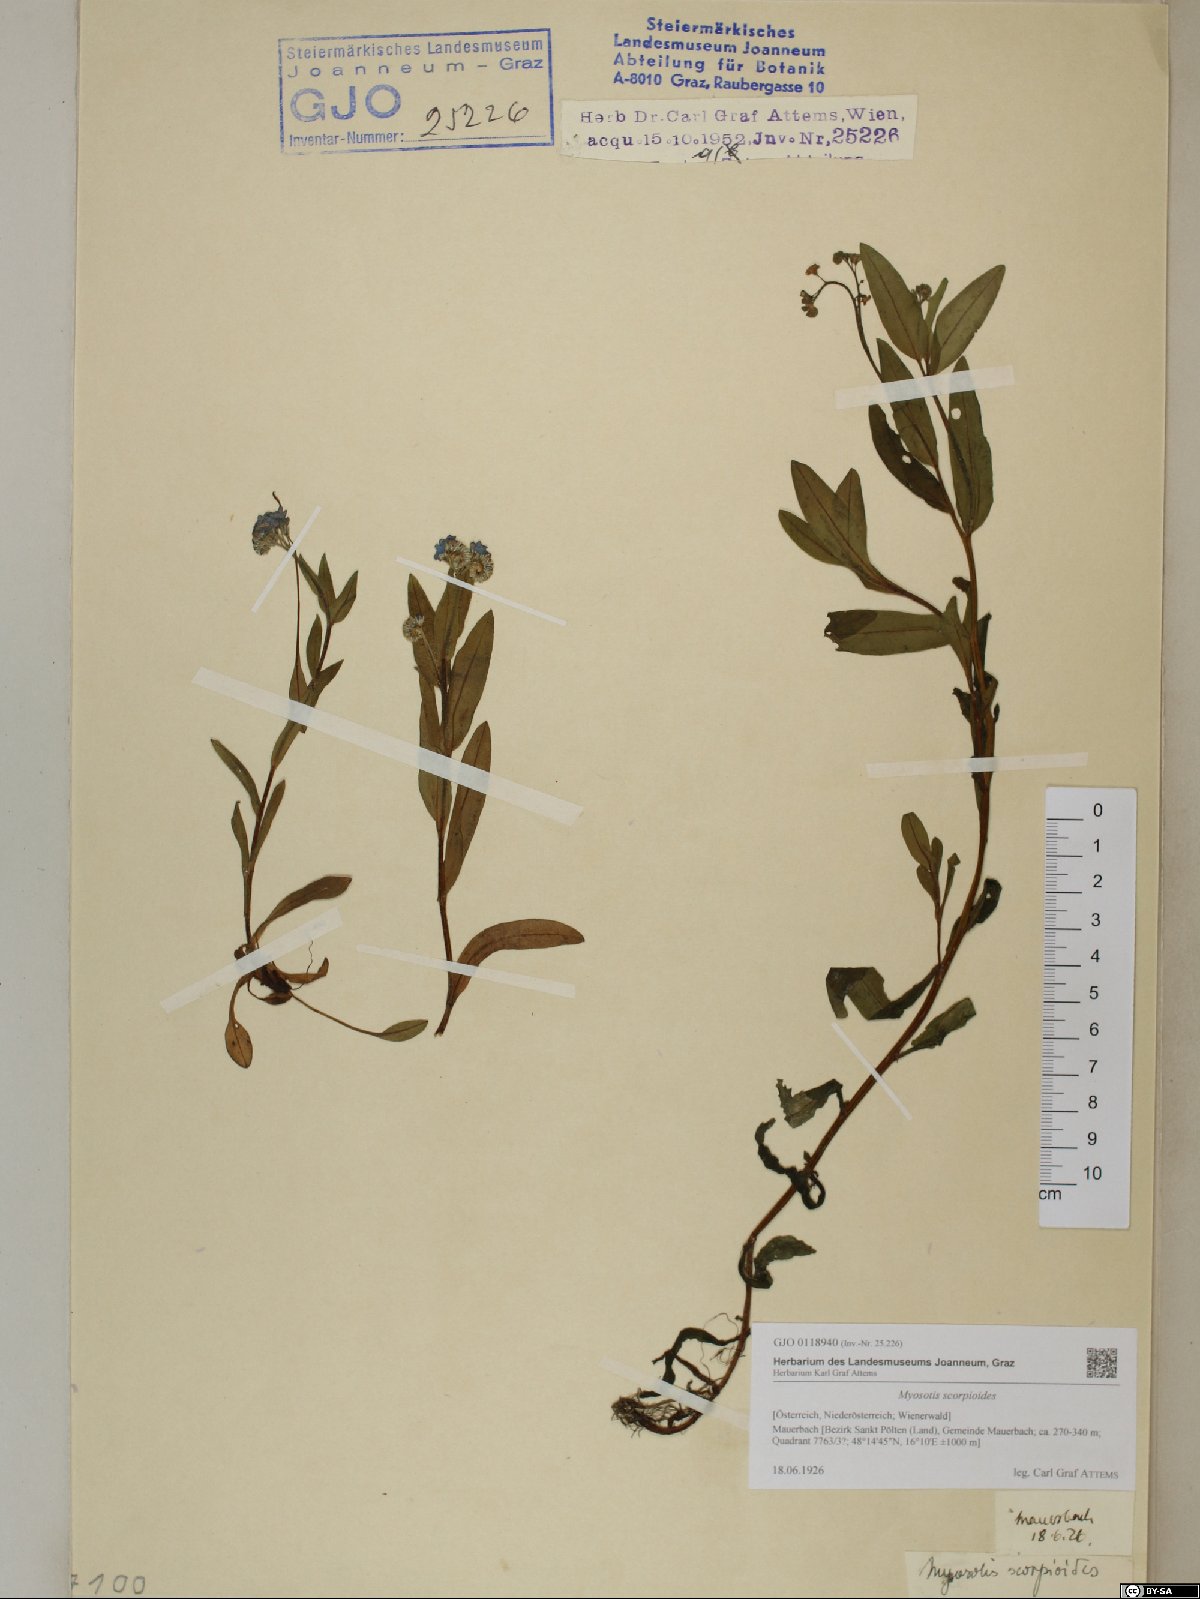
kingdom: Plantae
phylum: Tracheophyta
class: Magnoliopsida
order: Boraginales
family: Boraginaceae
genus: Myosotis
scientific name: Myosotis scorpioides
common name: Water forget-me-not
